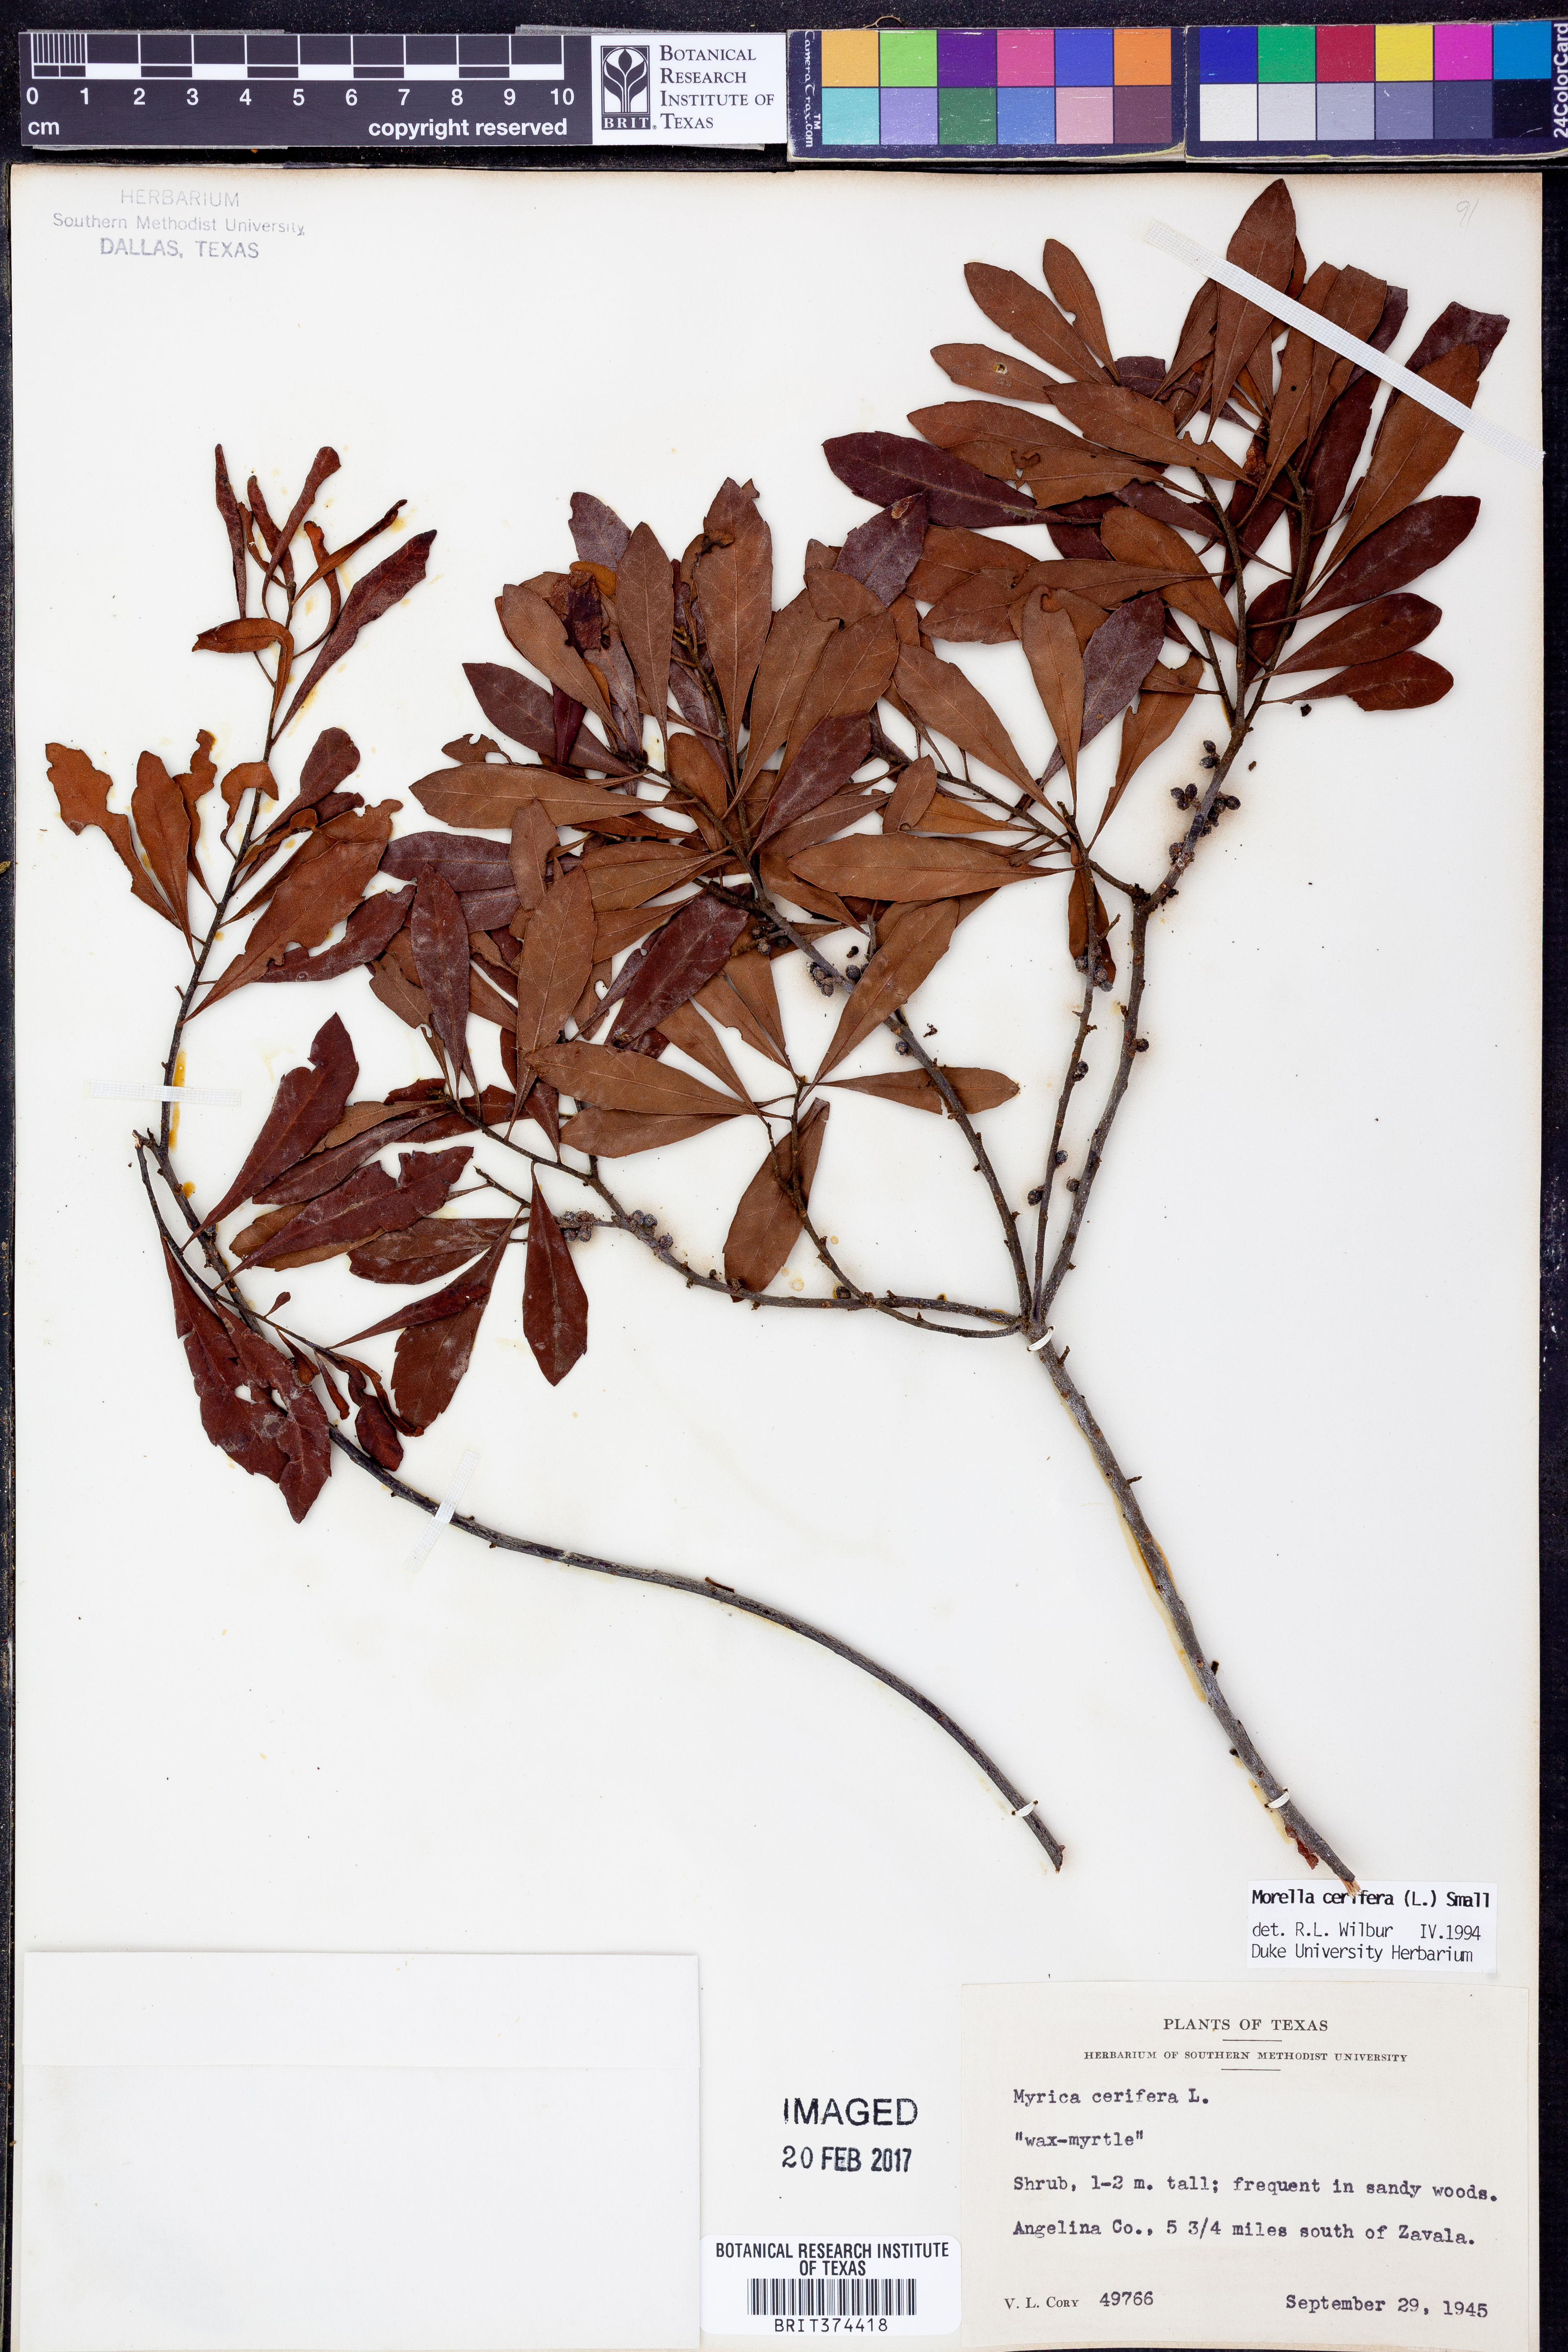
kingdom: Plantae
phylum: Tracheophyta
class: Magnoliopsida
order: Fagales
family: Myricaceae
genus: Morella
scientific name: Morella cerifera
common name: Wax myrtle
